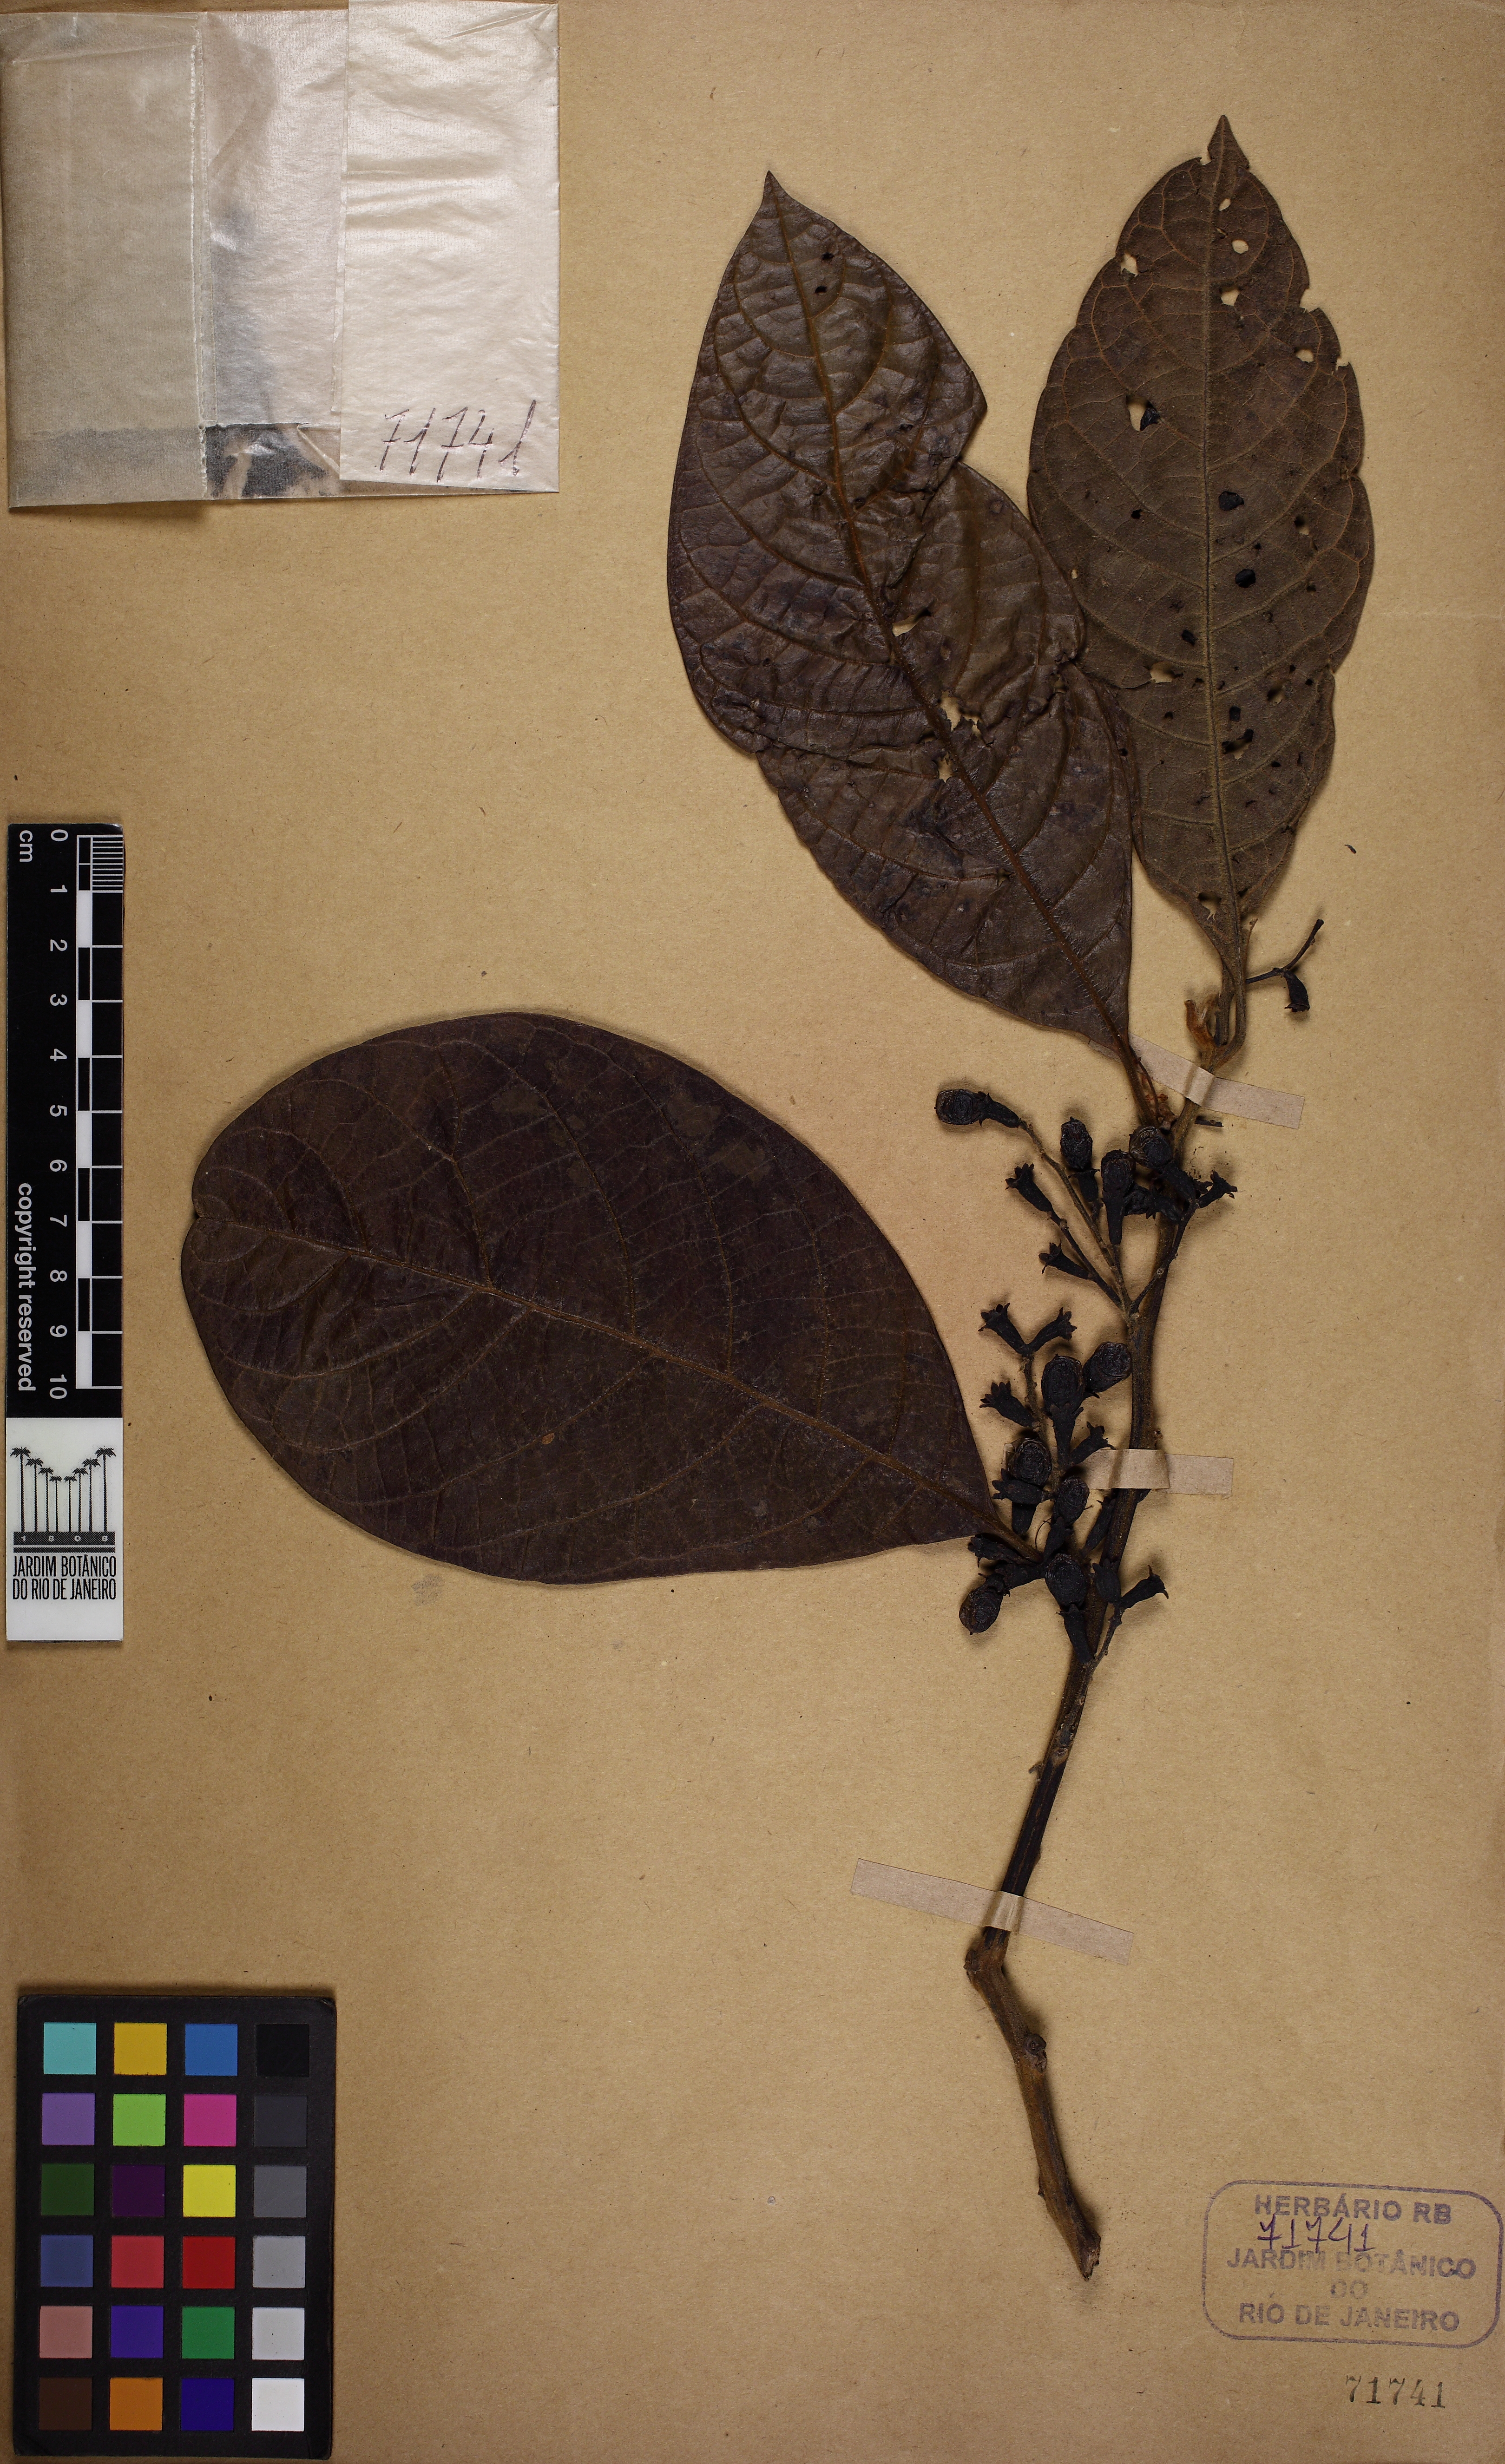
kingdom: Plantae
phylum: Tracheophyta
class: Magnoliopsida
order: Laurales
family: Lauraceae
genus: Ocotea
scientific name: Ocotea tabacifolia
